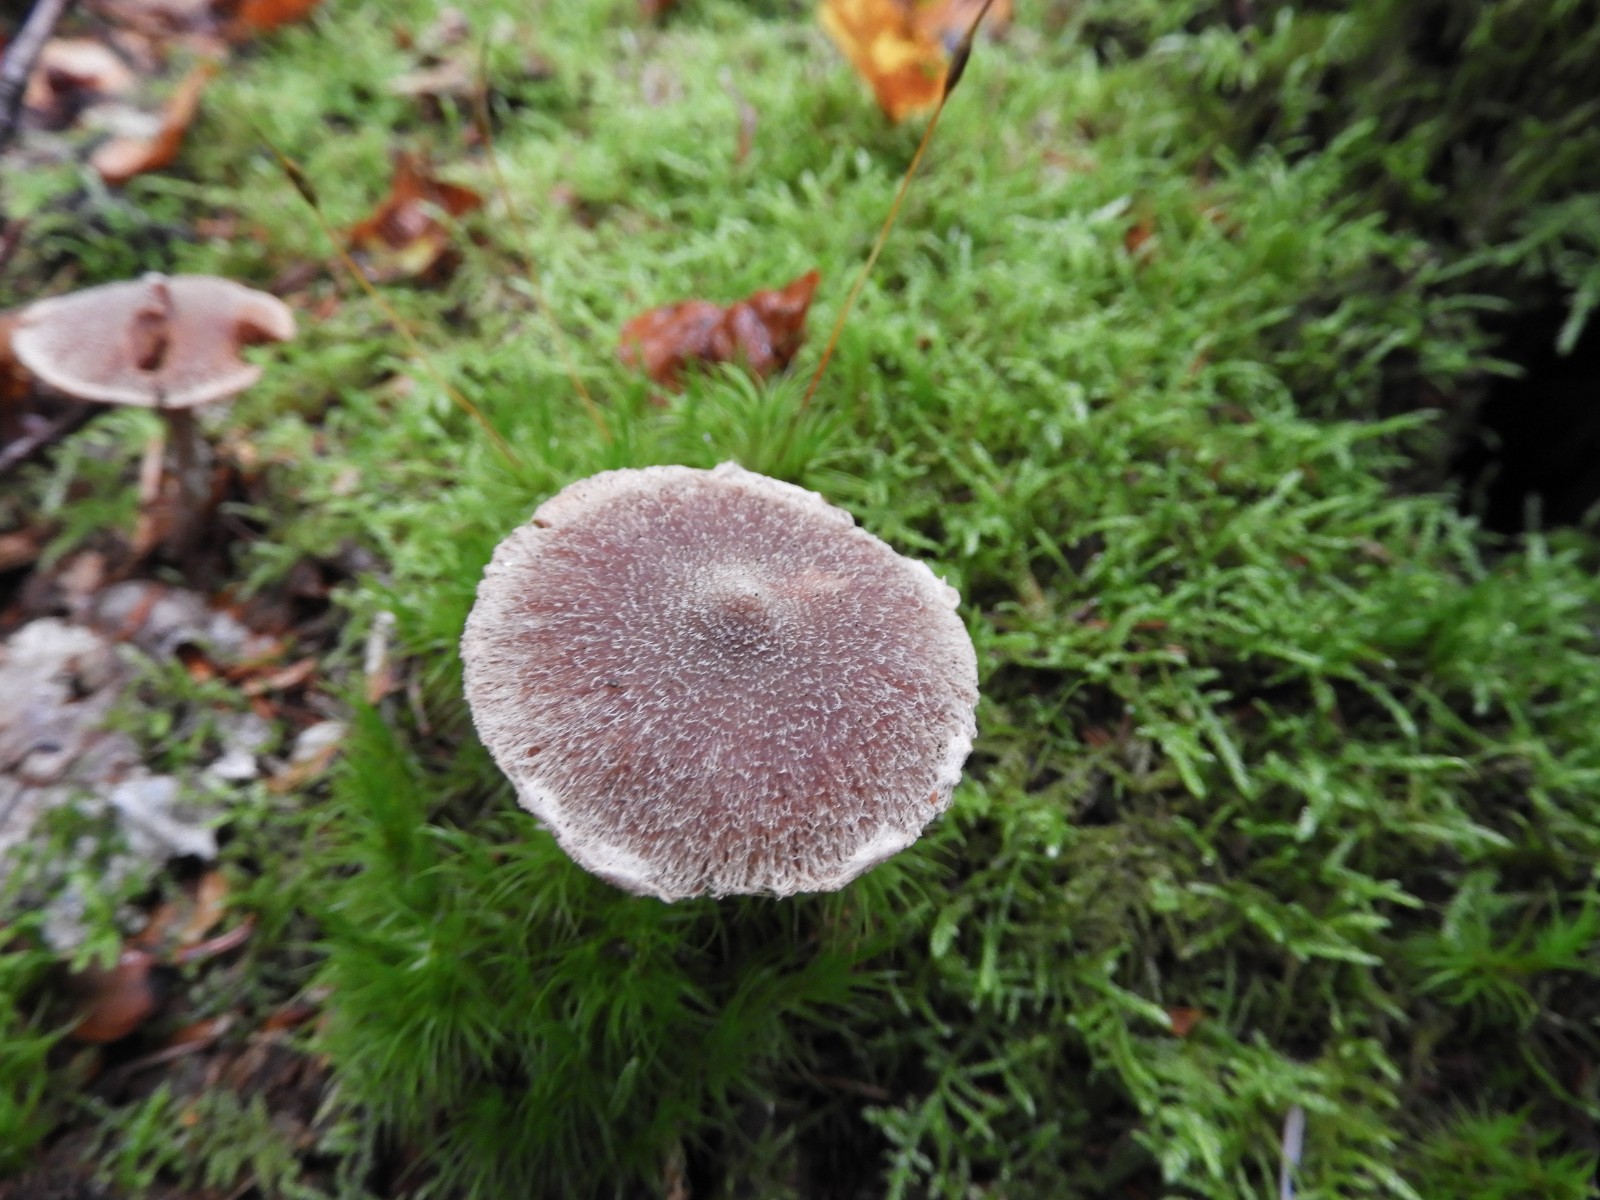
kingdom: Fungi
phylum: Basidiomycota
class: Agaricomycetes
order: Agaricales
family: Cortinariaceae
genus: Cortinarius
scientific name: Cortinarius
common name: pelargonie-slørhat
